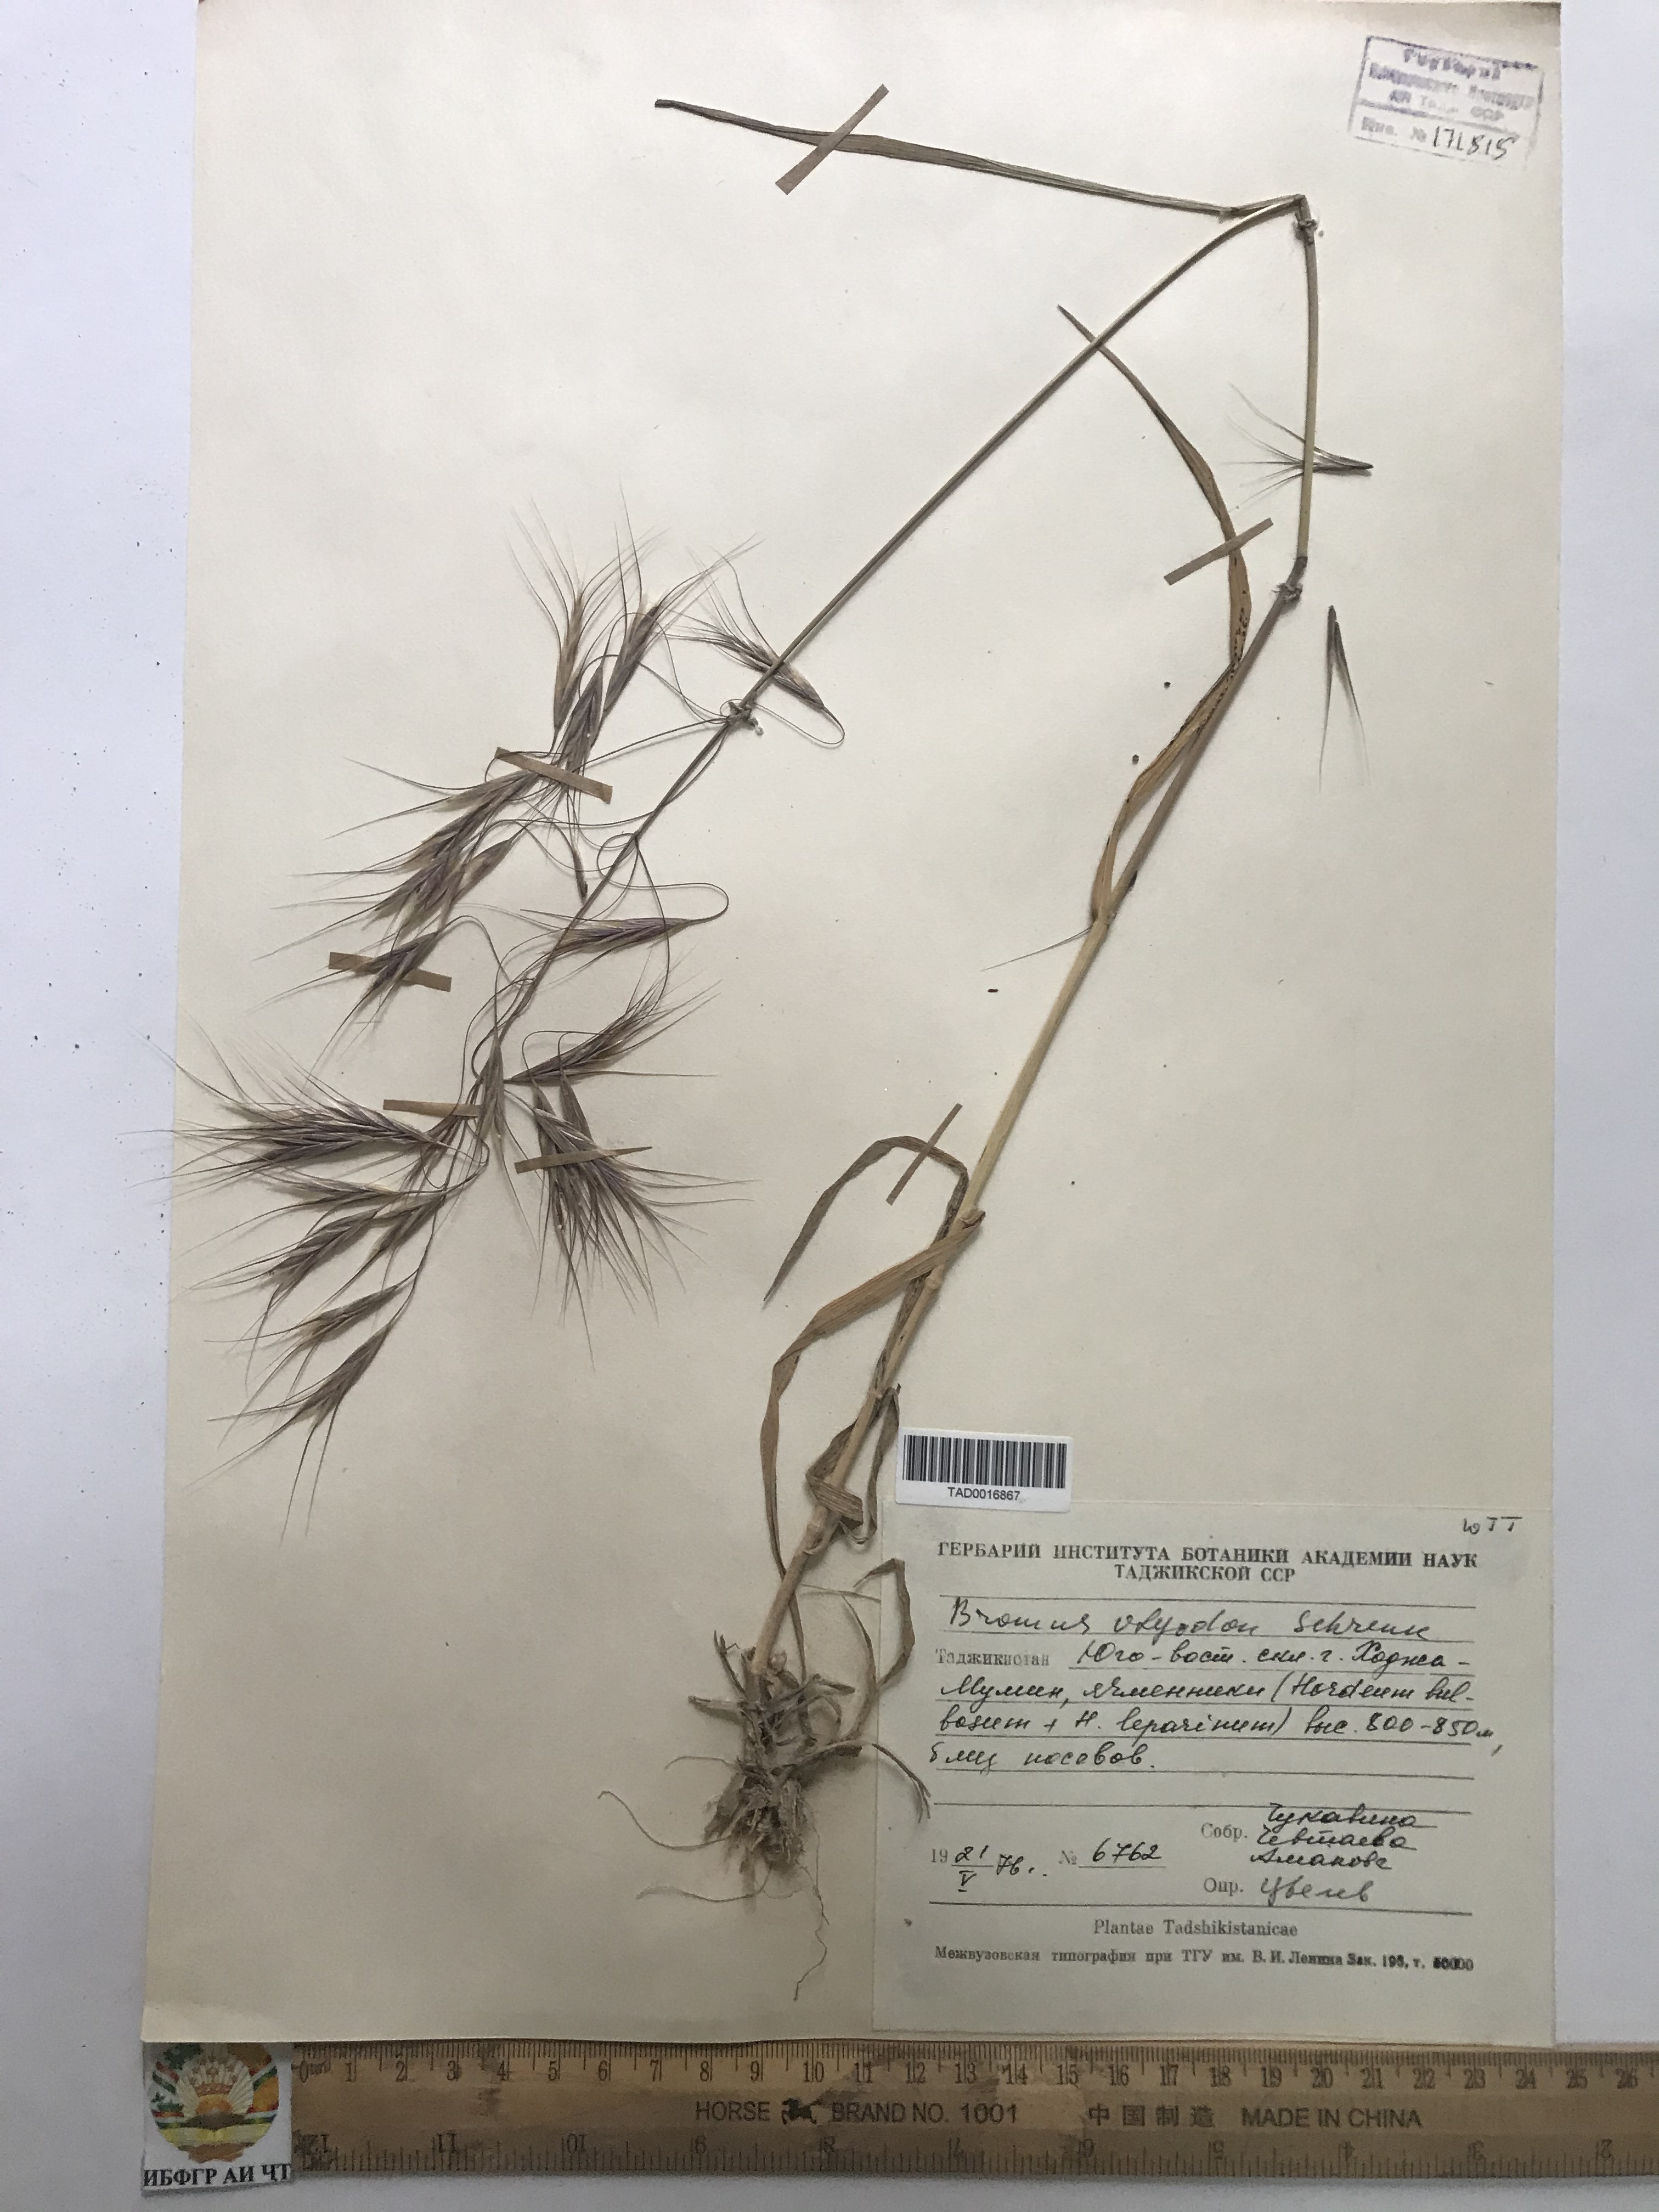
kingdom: Plantae
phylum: Tracheophyta
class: Liliopsida
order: Poales
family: Poaceae
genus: Bromus
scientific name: Bromus oxyodon
